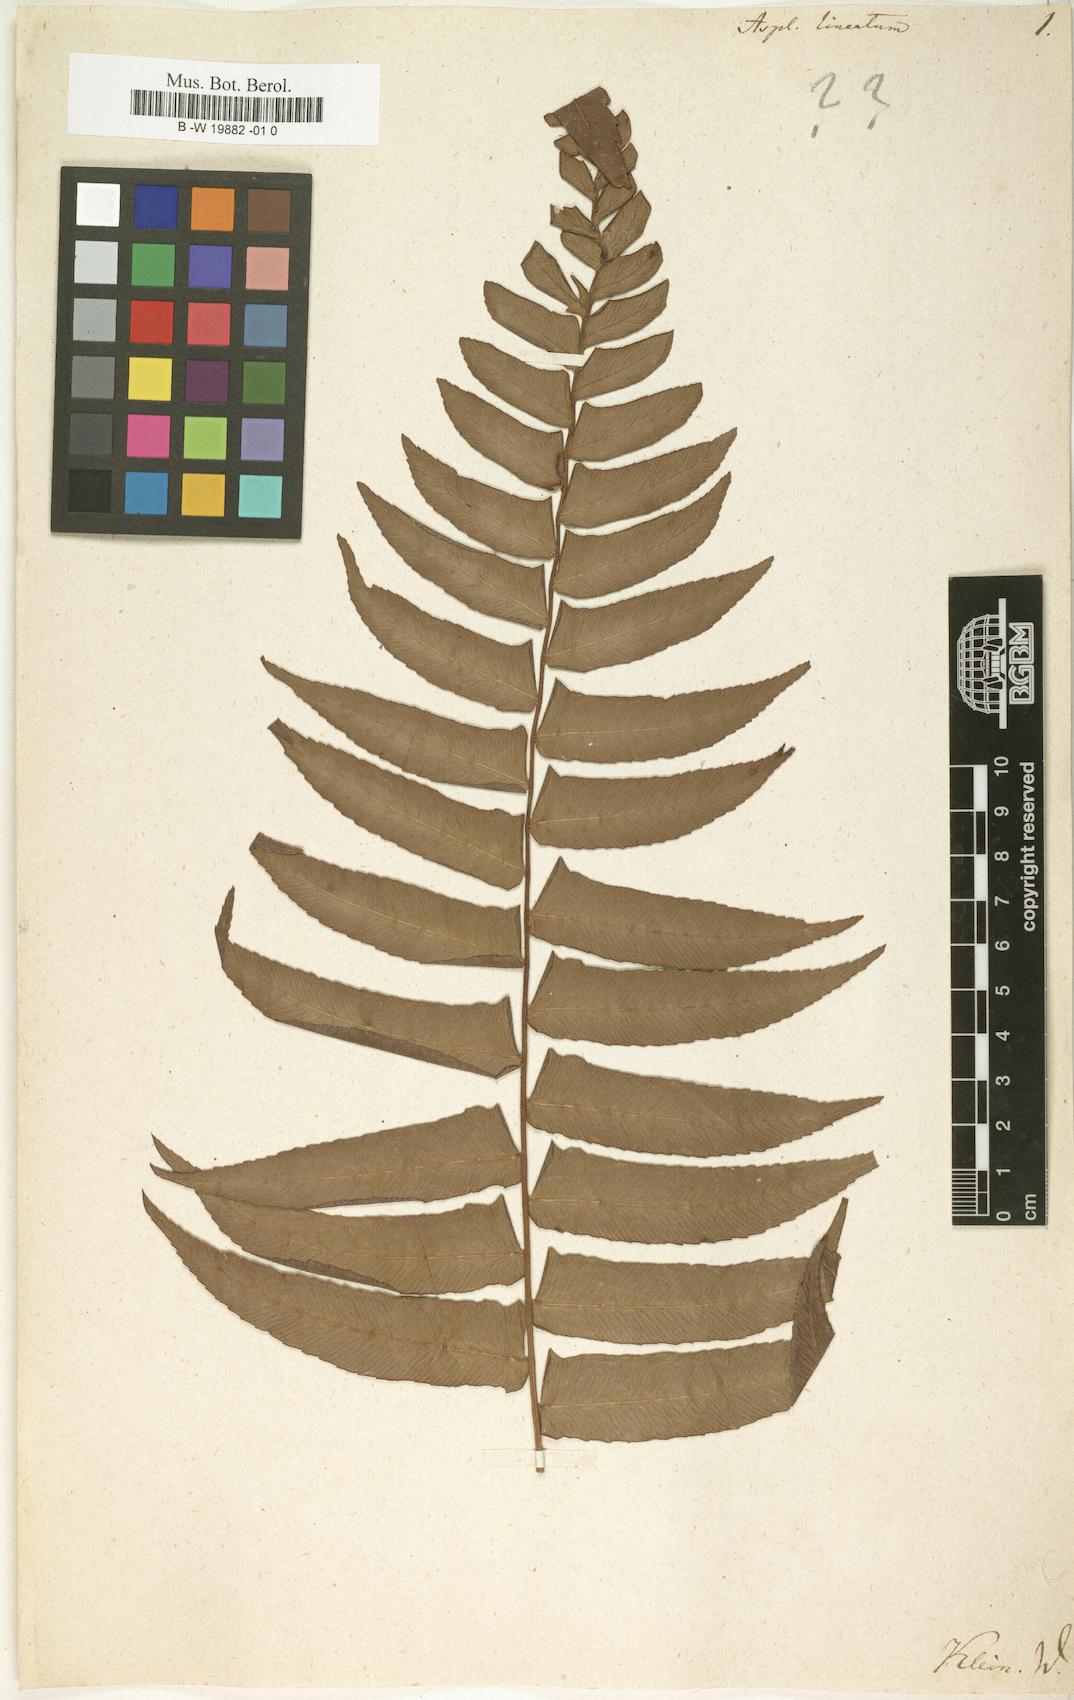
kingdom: Plantae
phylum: Tracheophyta
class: Polypodiopsida
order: Polypodiales
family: Aspleniaceae
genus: Asplenium
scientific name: Asplenium
